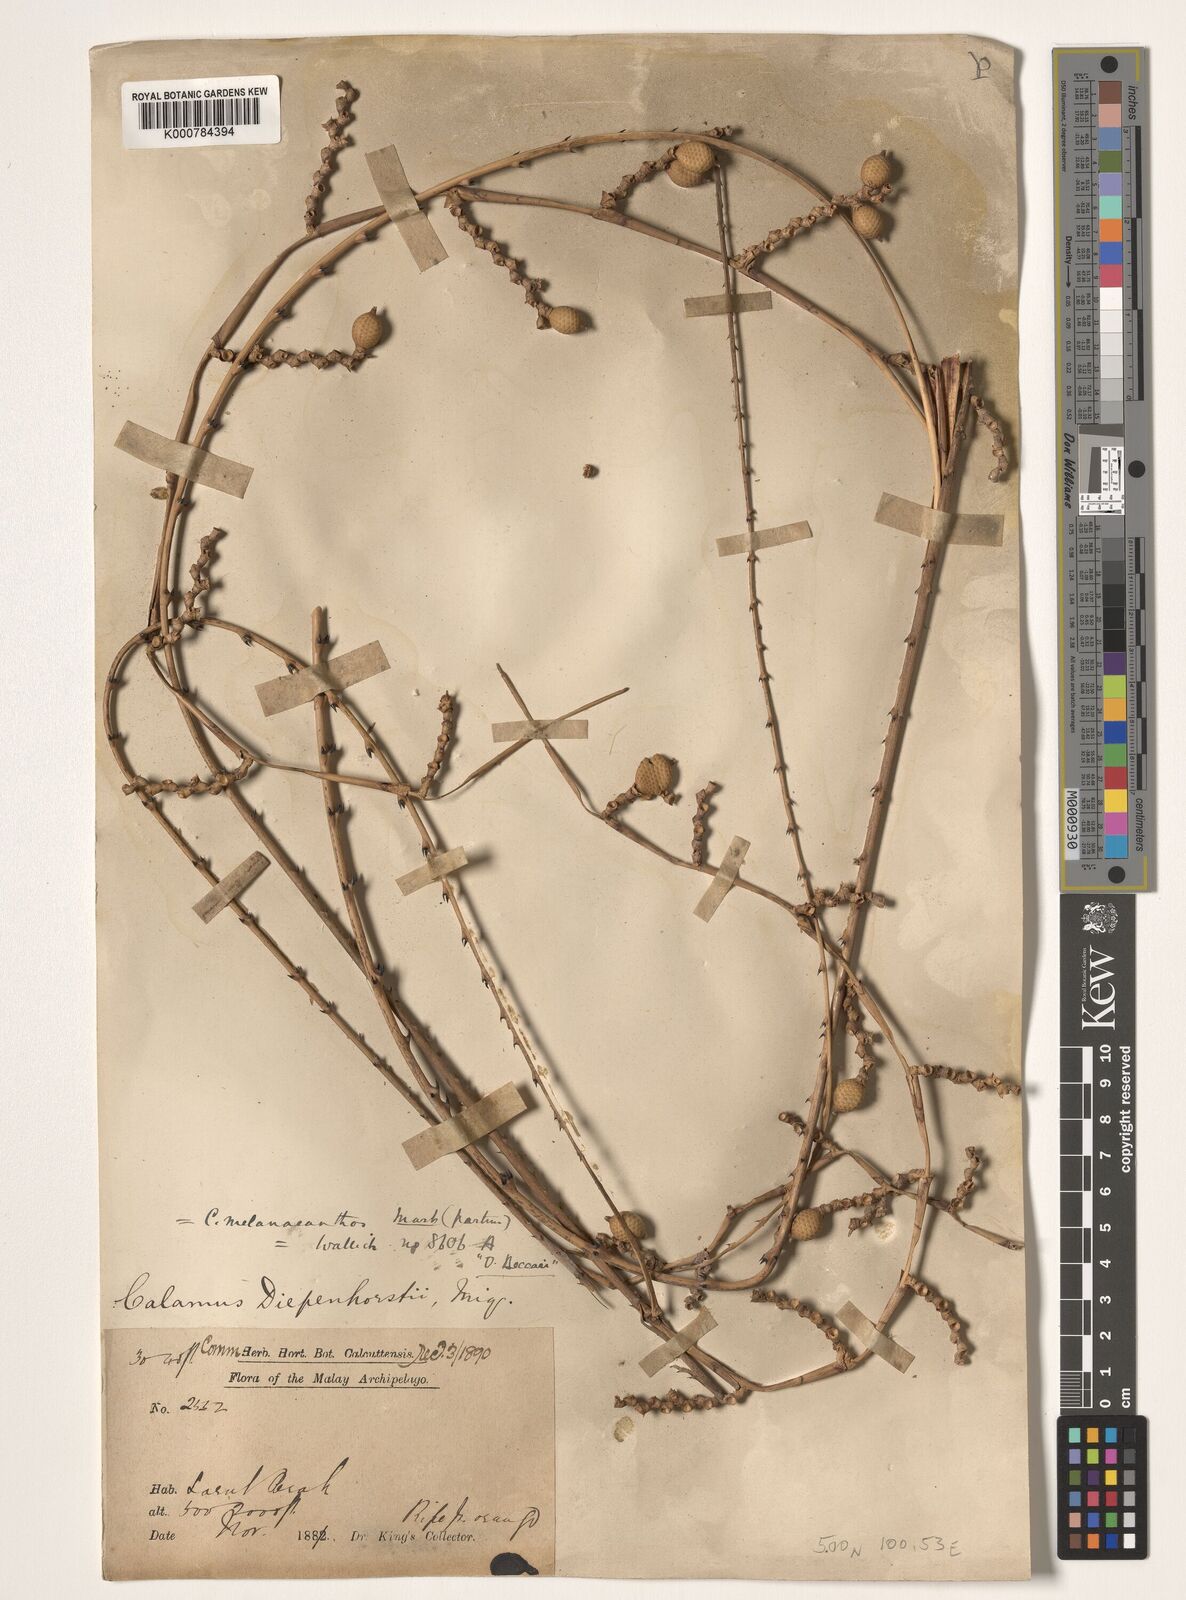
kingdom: Plantae
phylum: Tracheophyta
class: Liliopsida
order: Arecales
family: Arecaceae
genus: Calamus
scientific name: Calamus diepenhorstii
